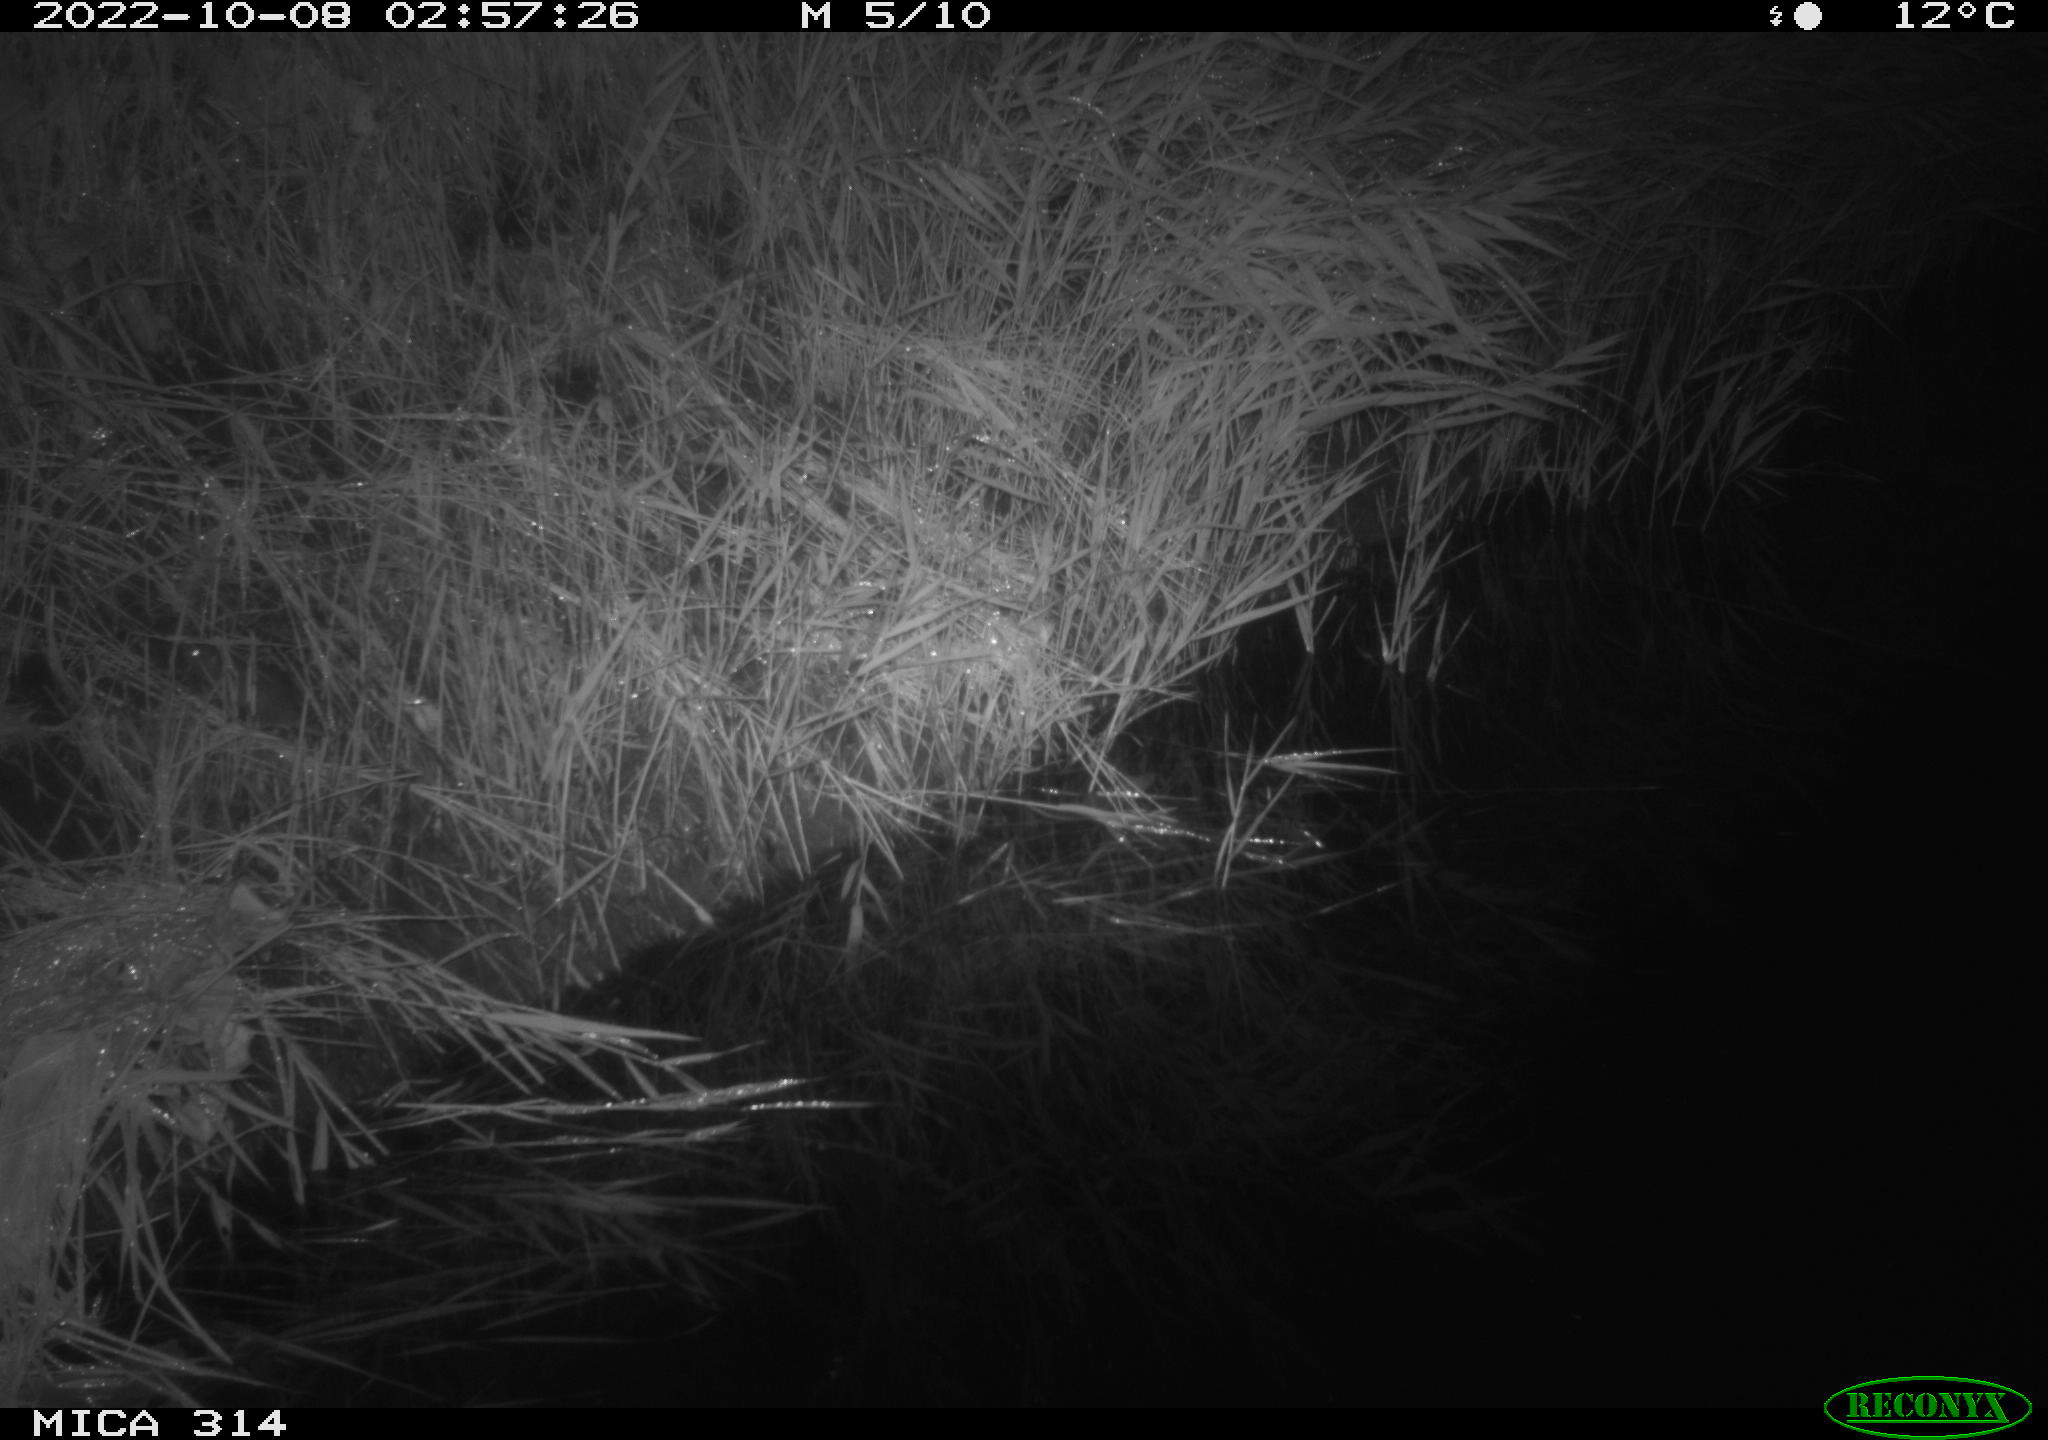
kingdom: Animalia
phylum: Chordata
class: Mammalia
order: Rodentia
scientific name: Rodentia
